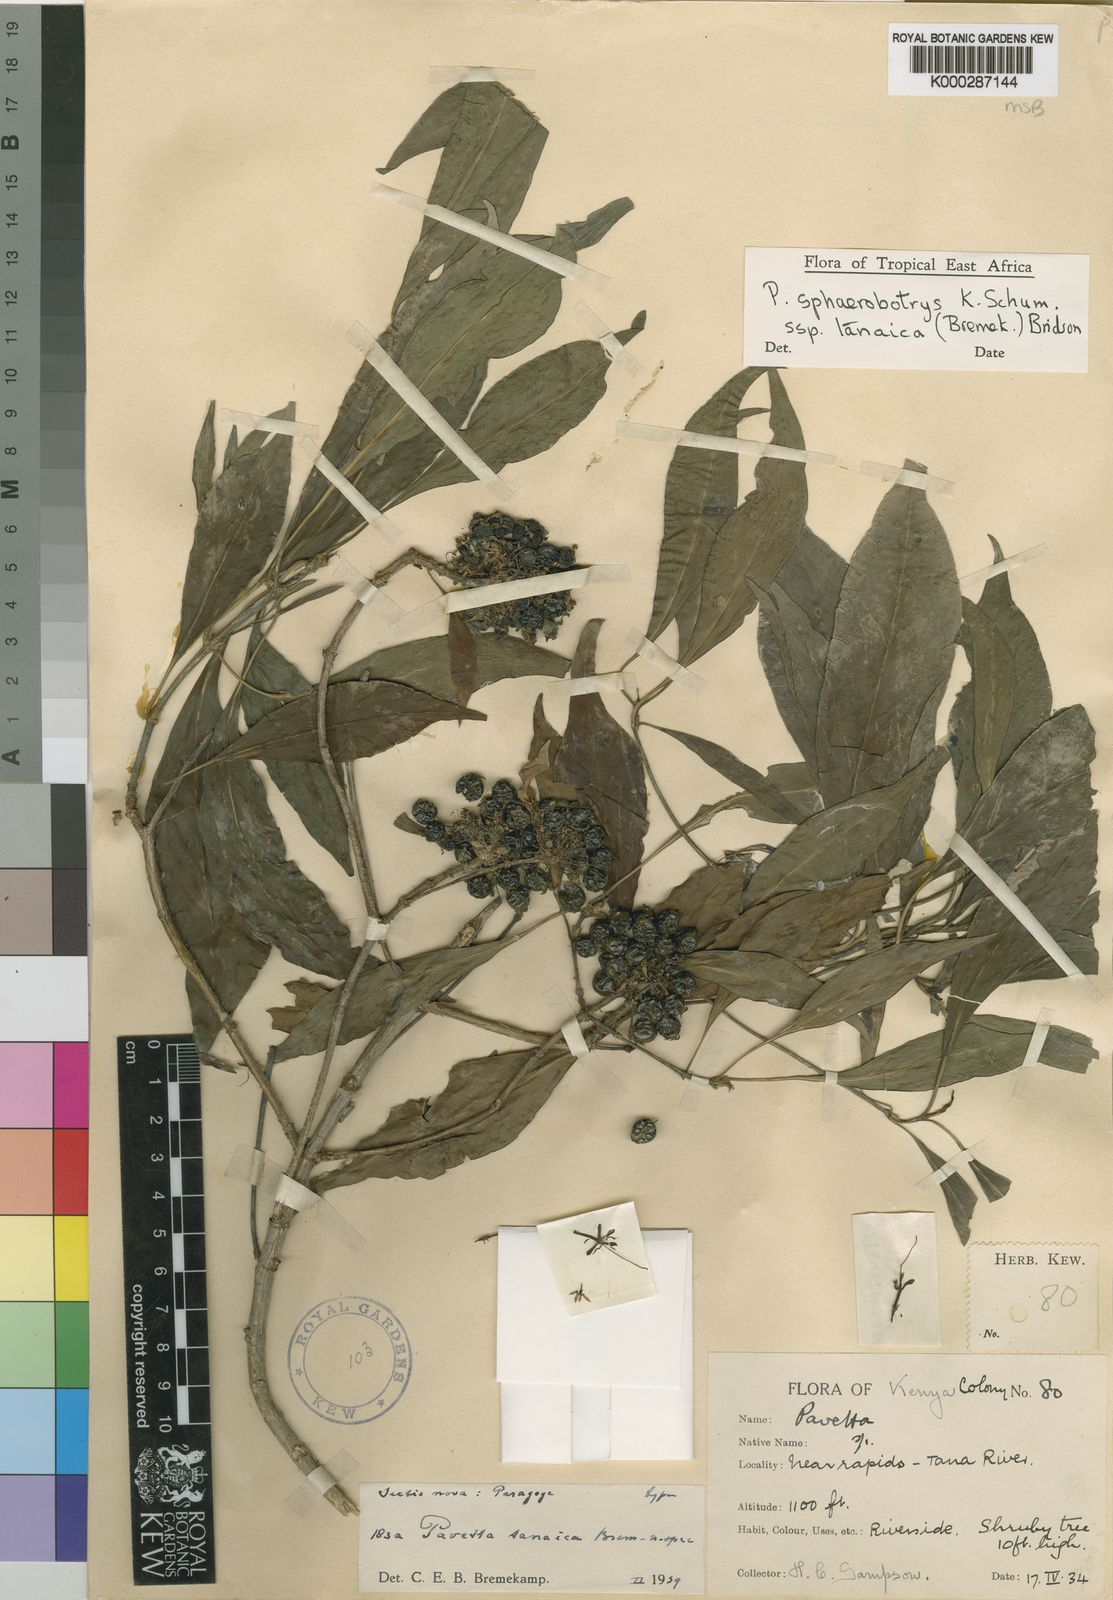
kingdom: Plantae
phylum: Tracheophyta
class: Magnoliopsida
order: Gentianales
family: Rubiaceae
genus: Pavetta
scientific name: Pavetta sphaerobotrys
